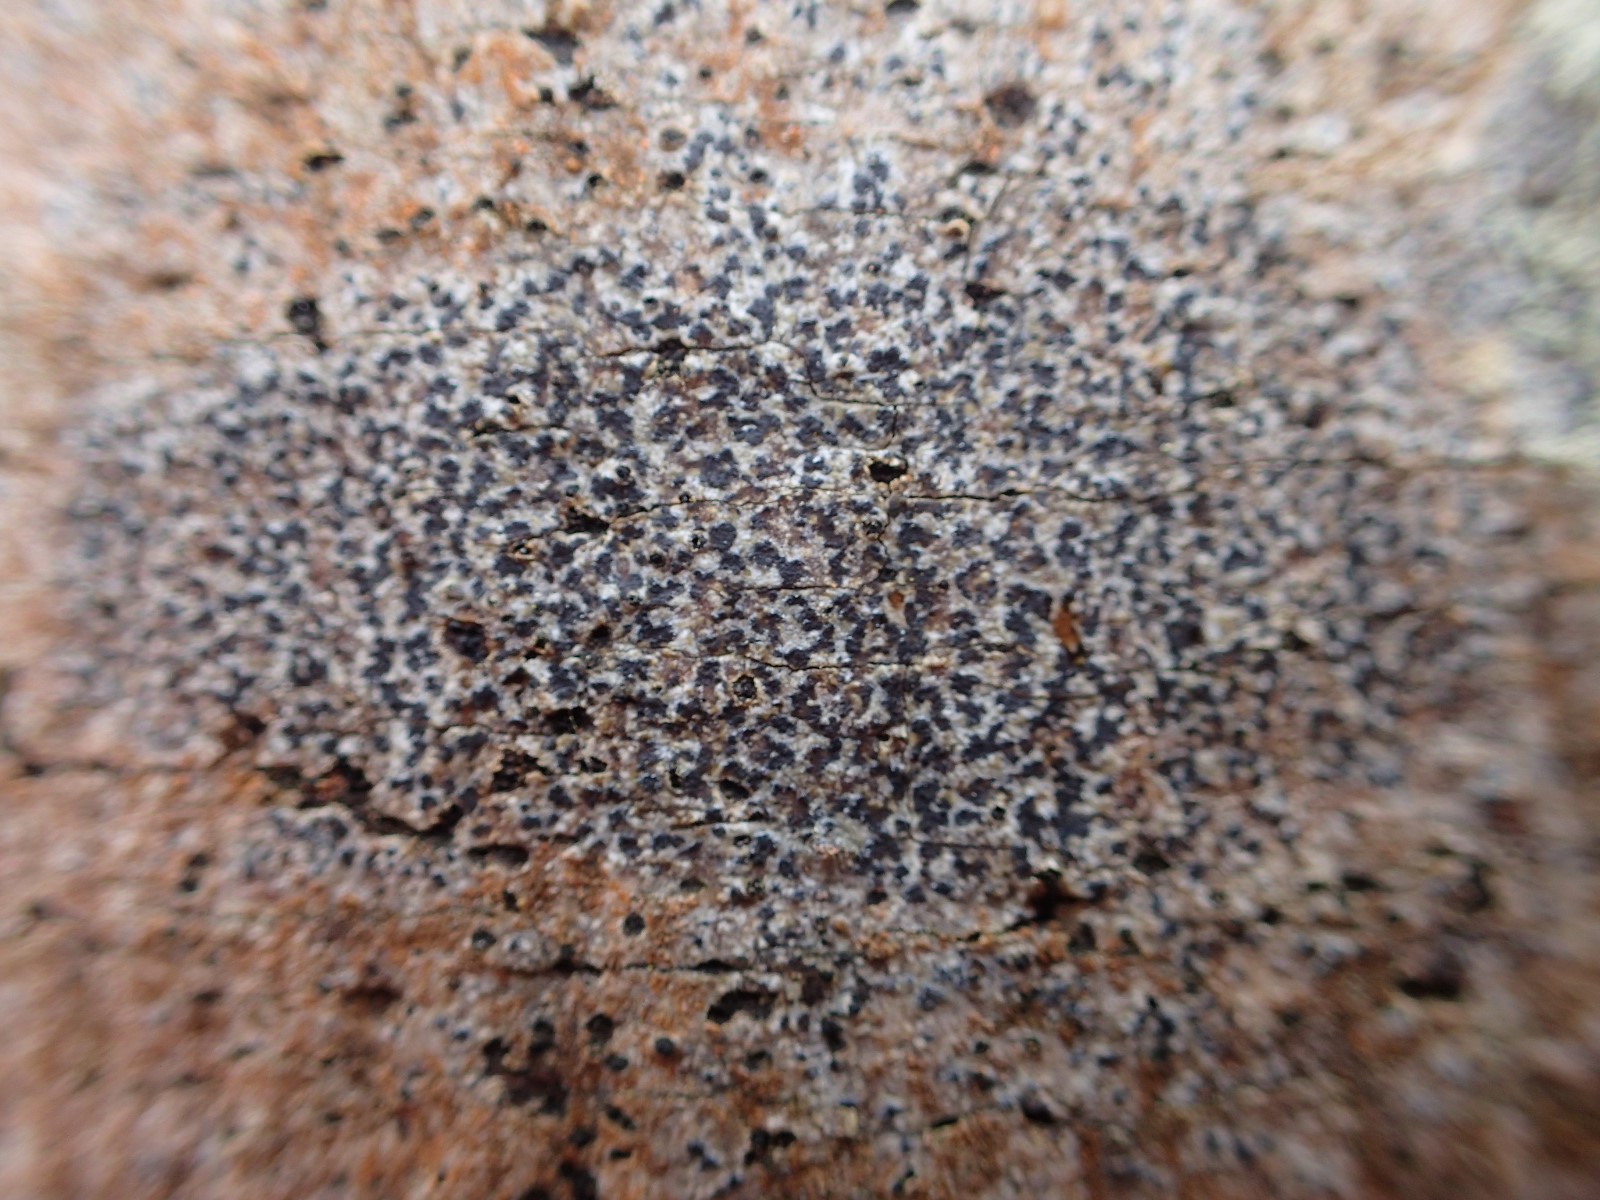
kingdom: Fungi
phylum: Ascomycota
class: Arthoniomycetes
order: Arthoniales
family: Arthoniaceae
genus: Arthonia
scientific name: Arthonia
